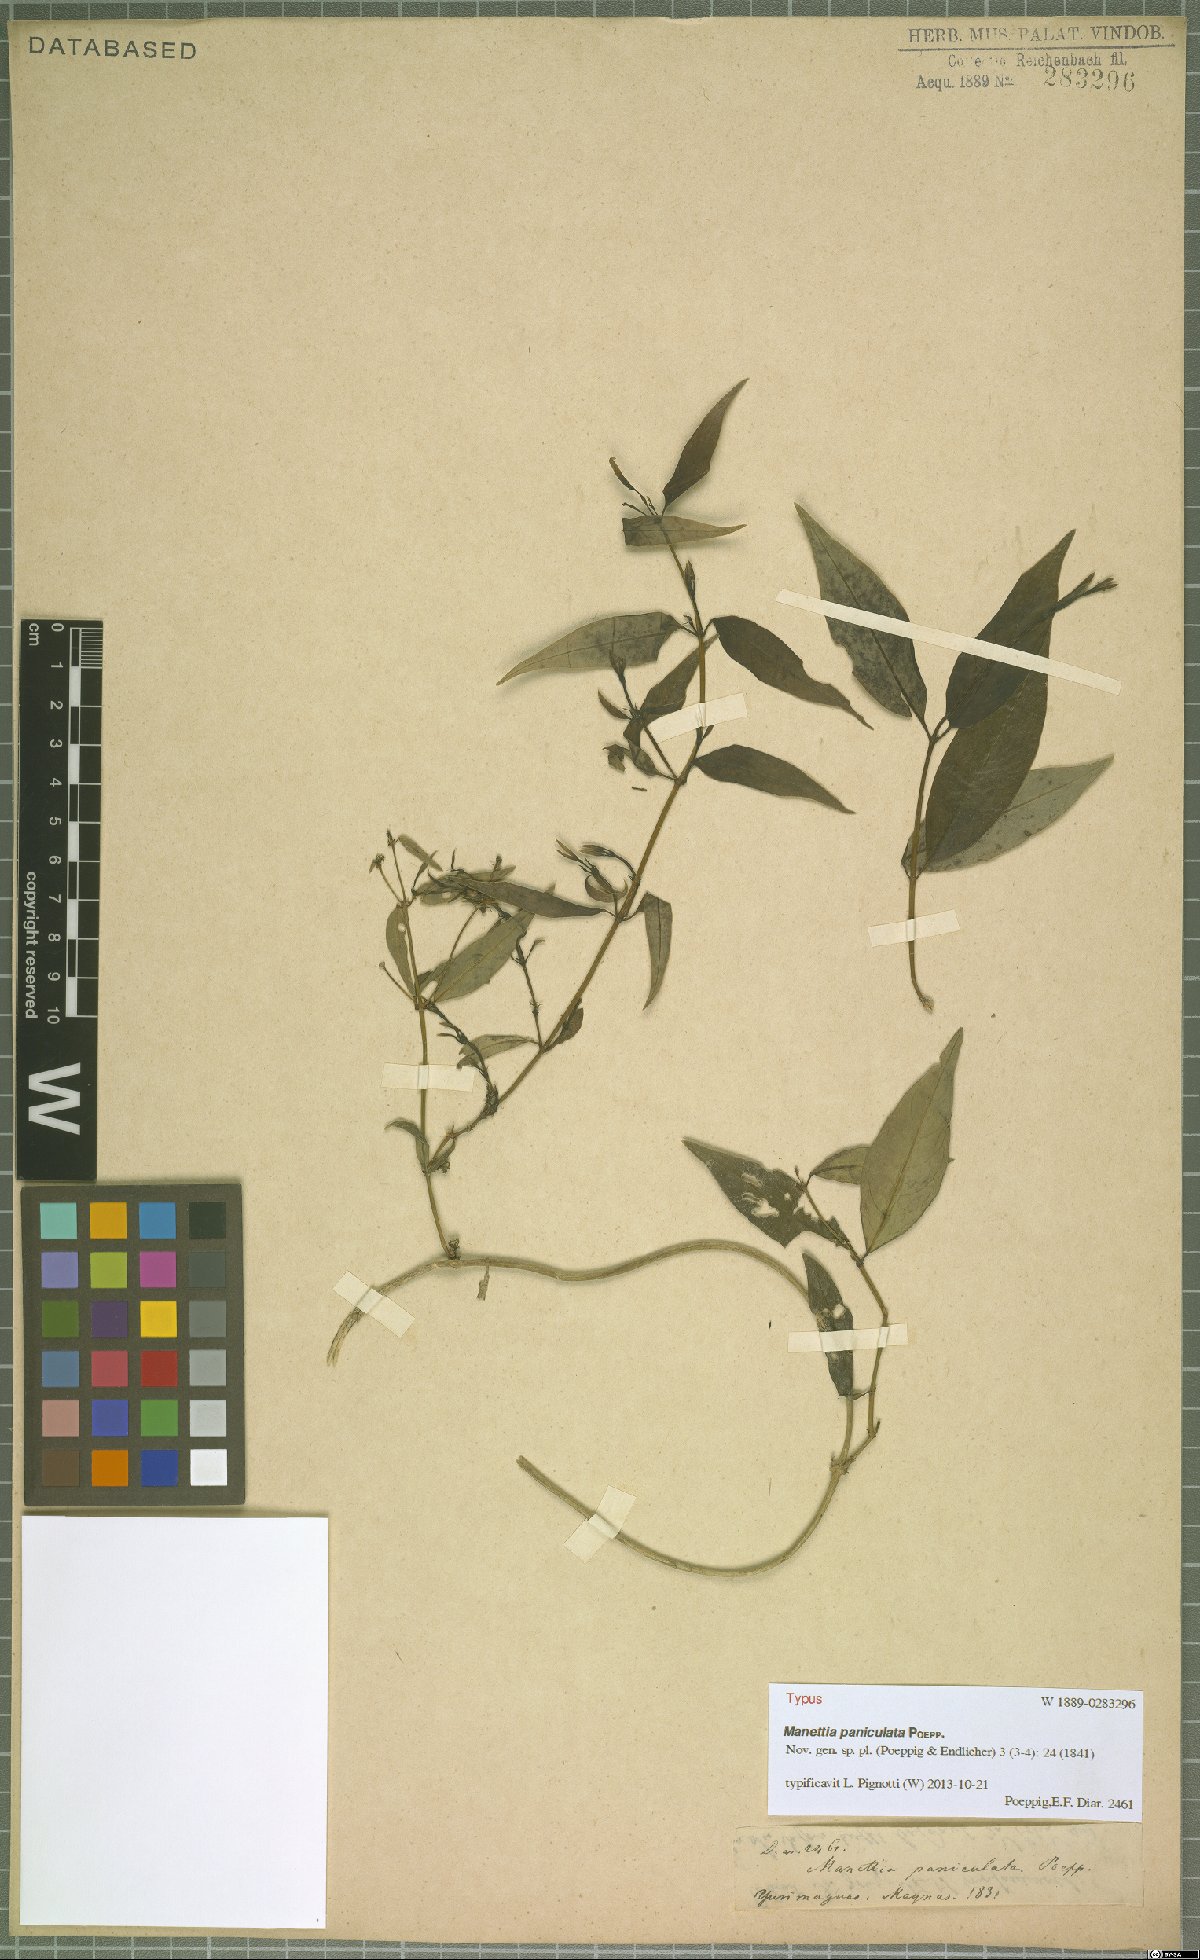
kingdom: Plantae
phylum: Tracheophyta
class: Magnoliopsida
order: Gentianales
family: Rubiaceae
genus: Manettia
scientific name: Manettia paniculata
